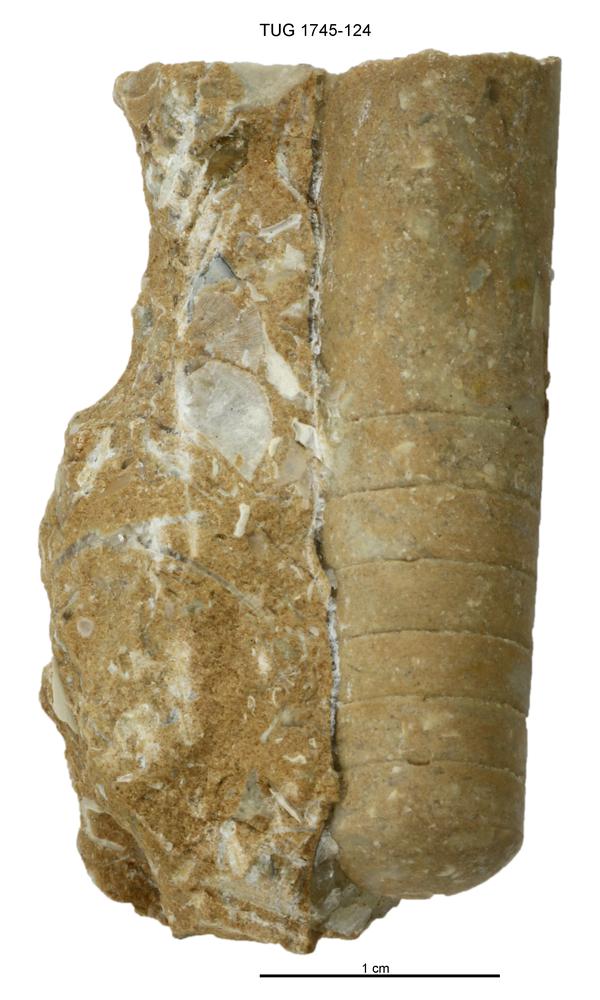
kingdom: Animalia
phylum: Mollusca
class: Cephalopoda
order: Orthocerida
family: Orthoceratidae
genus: Orthoceras
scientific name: Orthoceras
